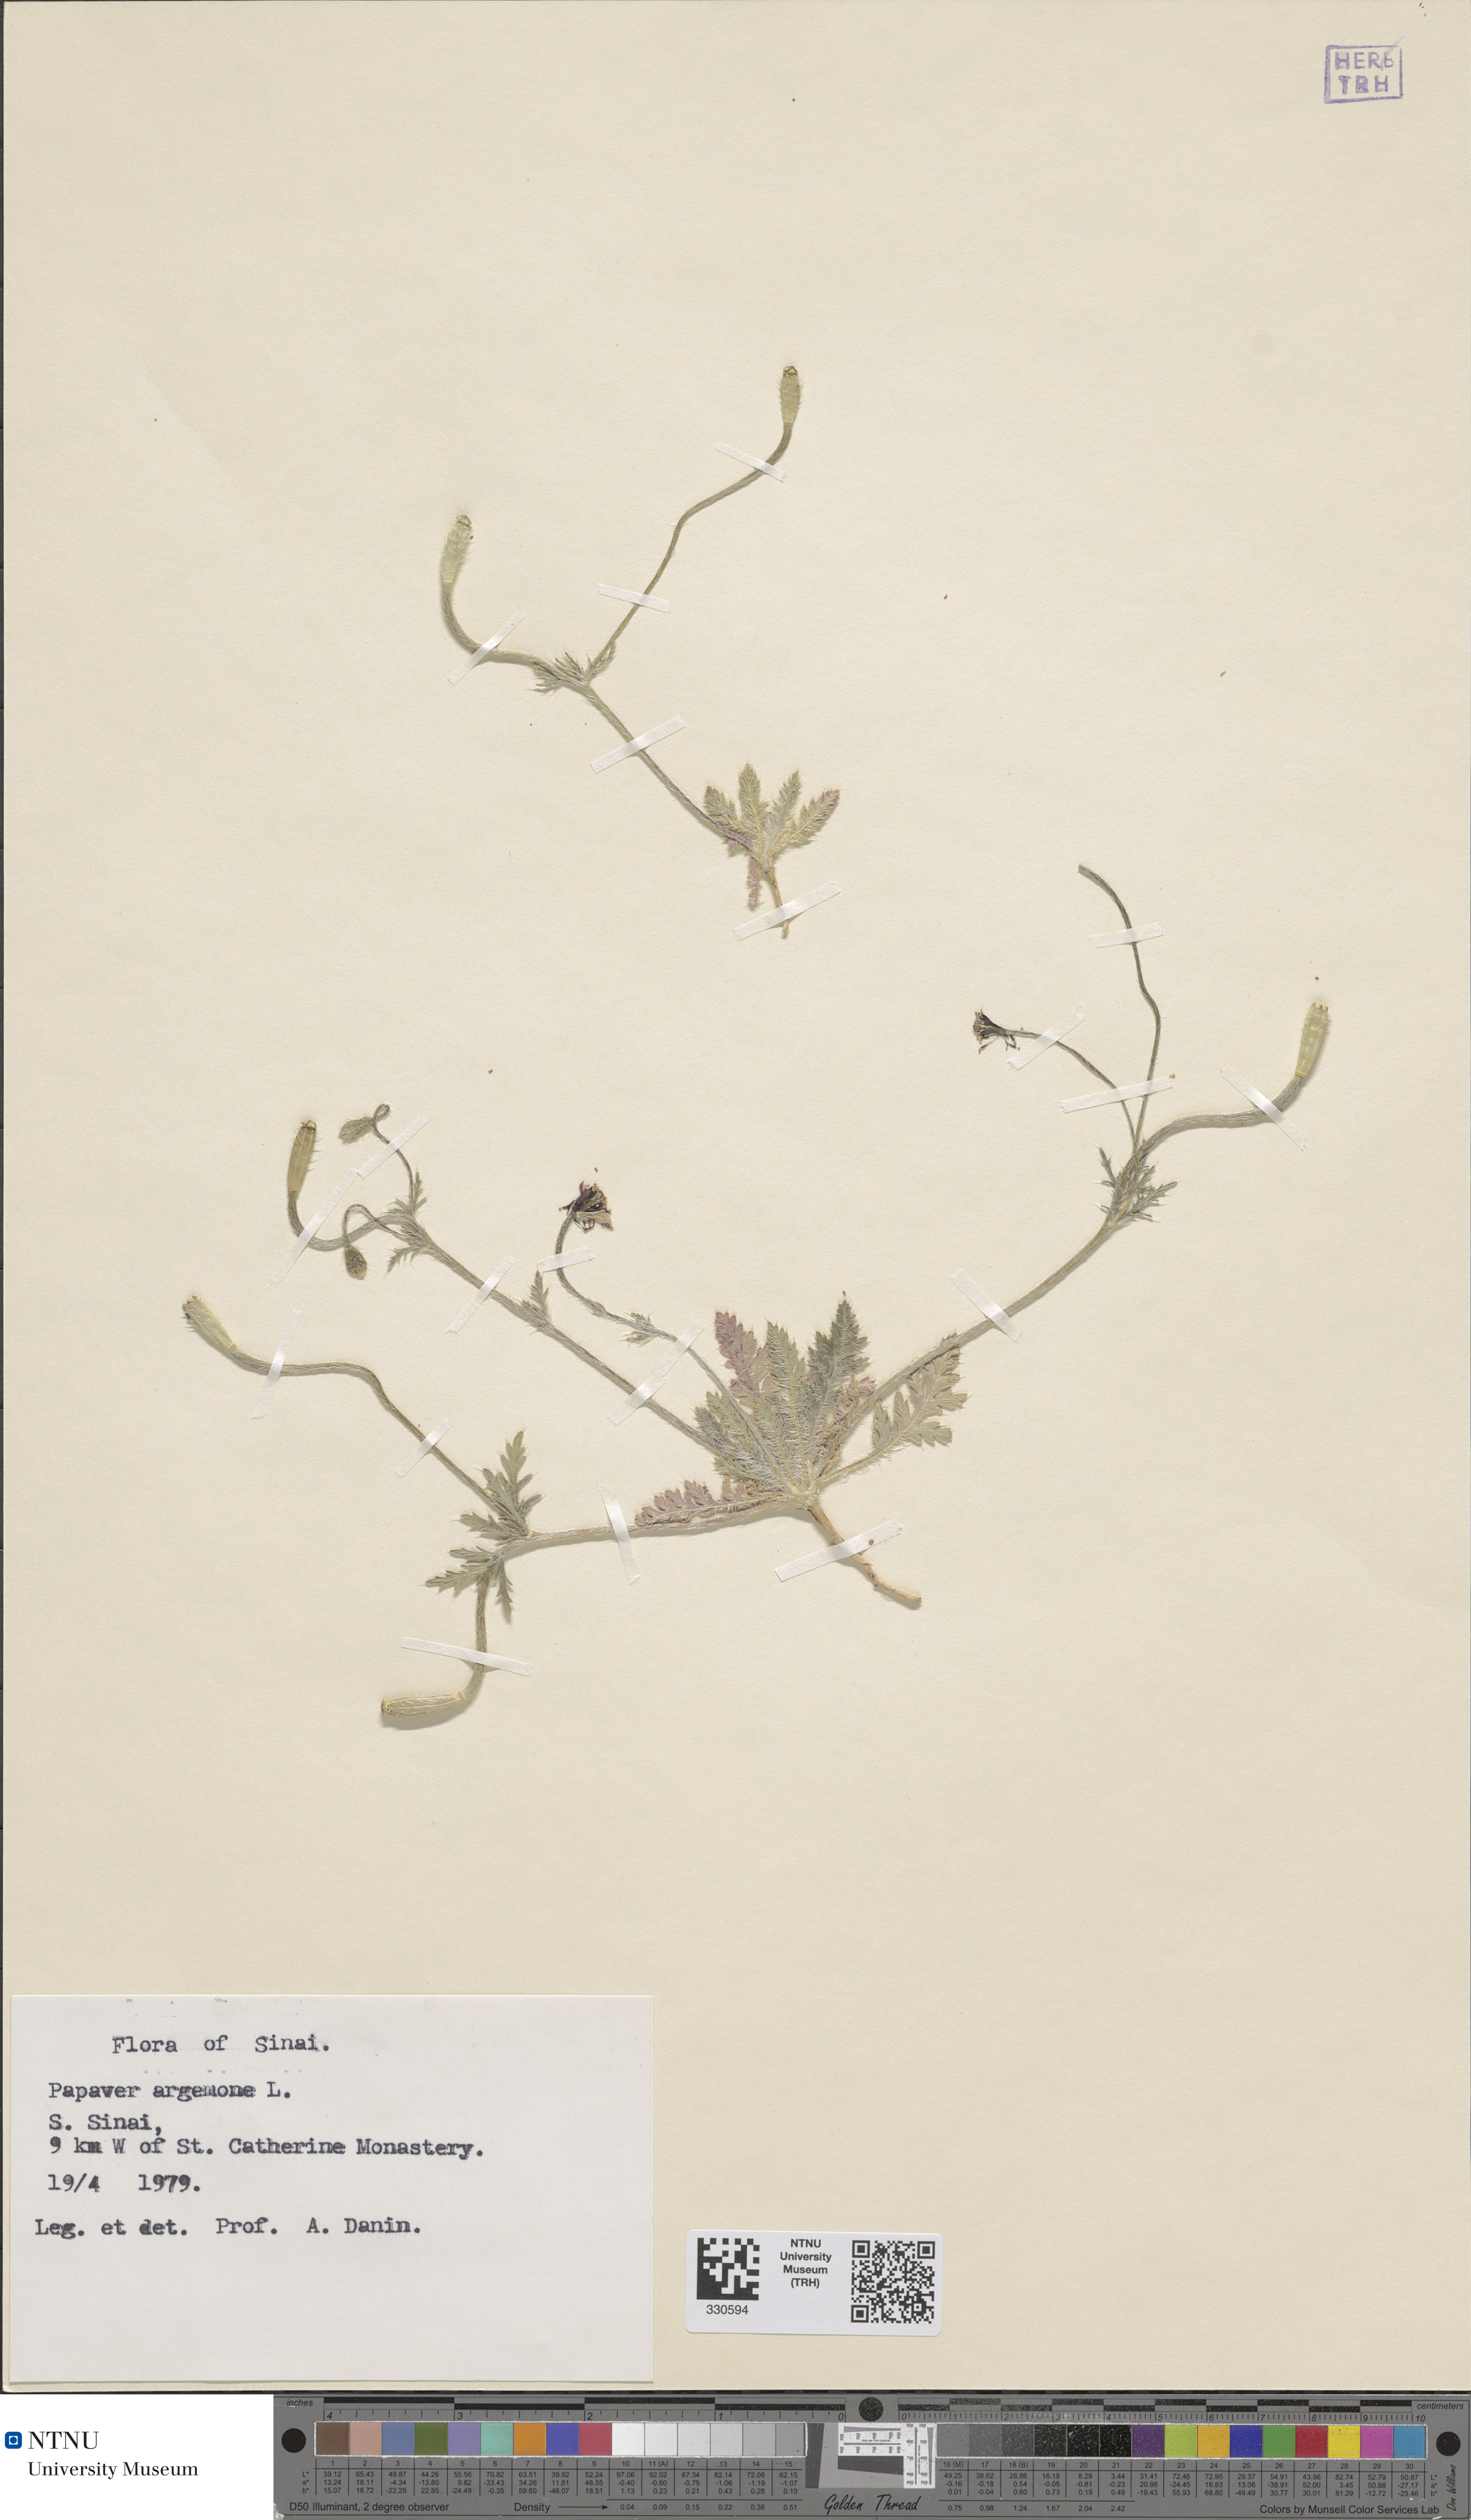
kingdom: Plantae
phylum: Tracheophyta
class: Magnoliopsida
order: Ranunculales
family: Papaveraceae
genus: Roemeria
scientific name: Roemeria argemone
